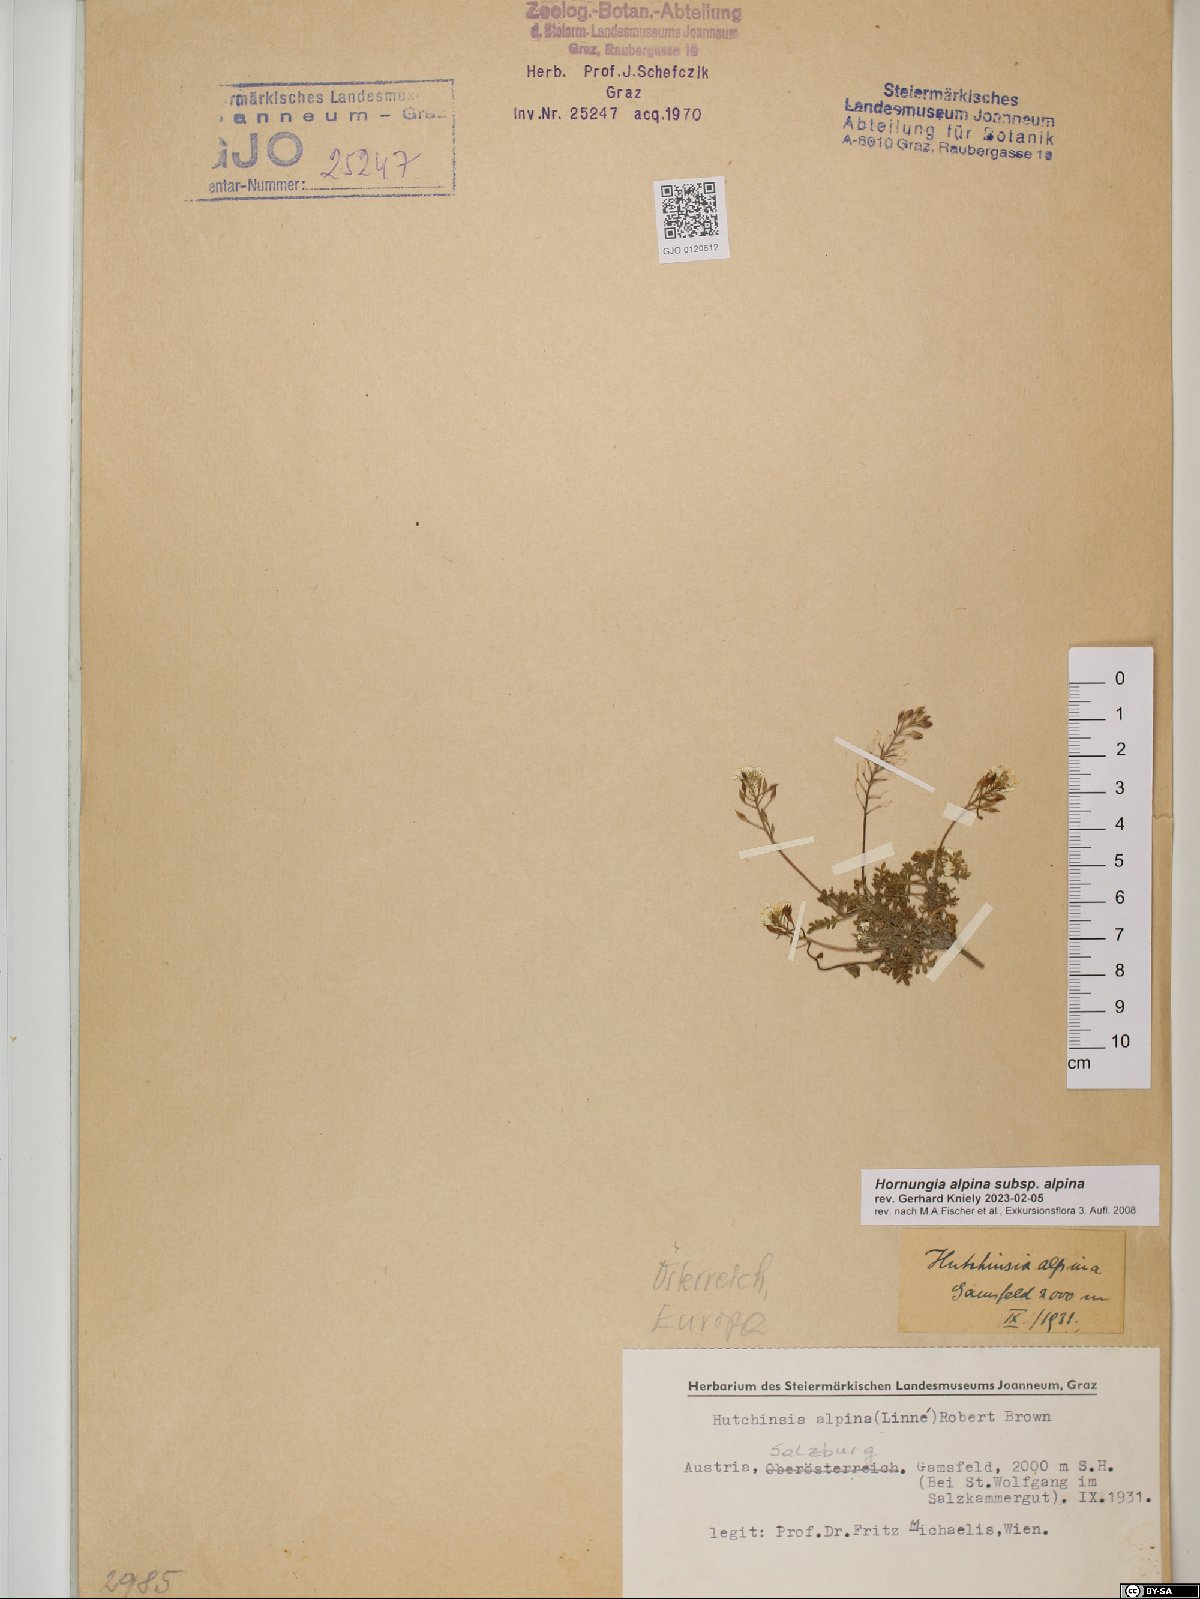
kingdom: Plantae
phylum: Tracheophyta
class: Magnoliopsida
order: Brassicales
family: Brassicaceae
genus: Hornungia
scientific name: Hornungia alpina
